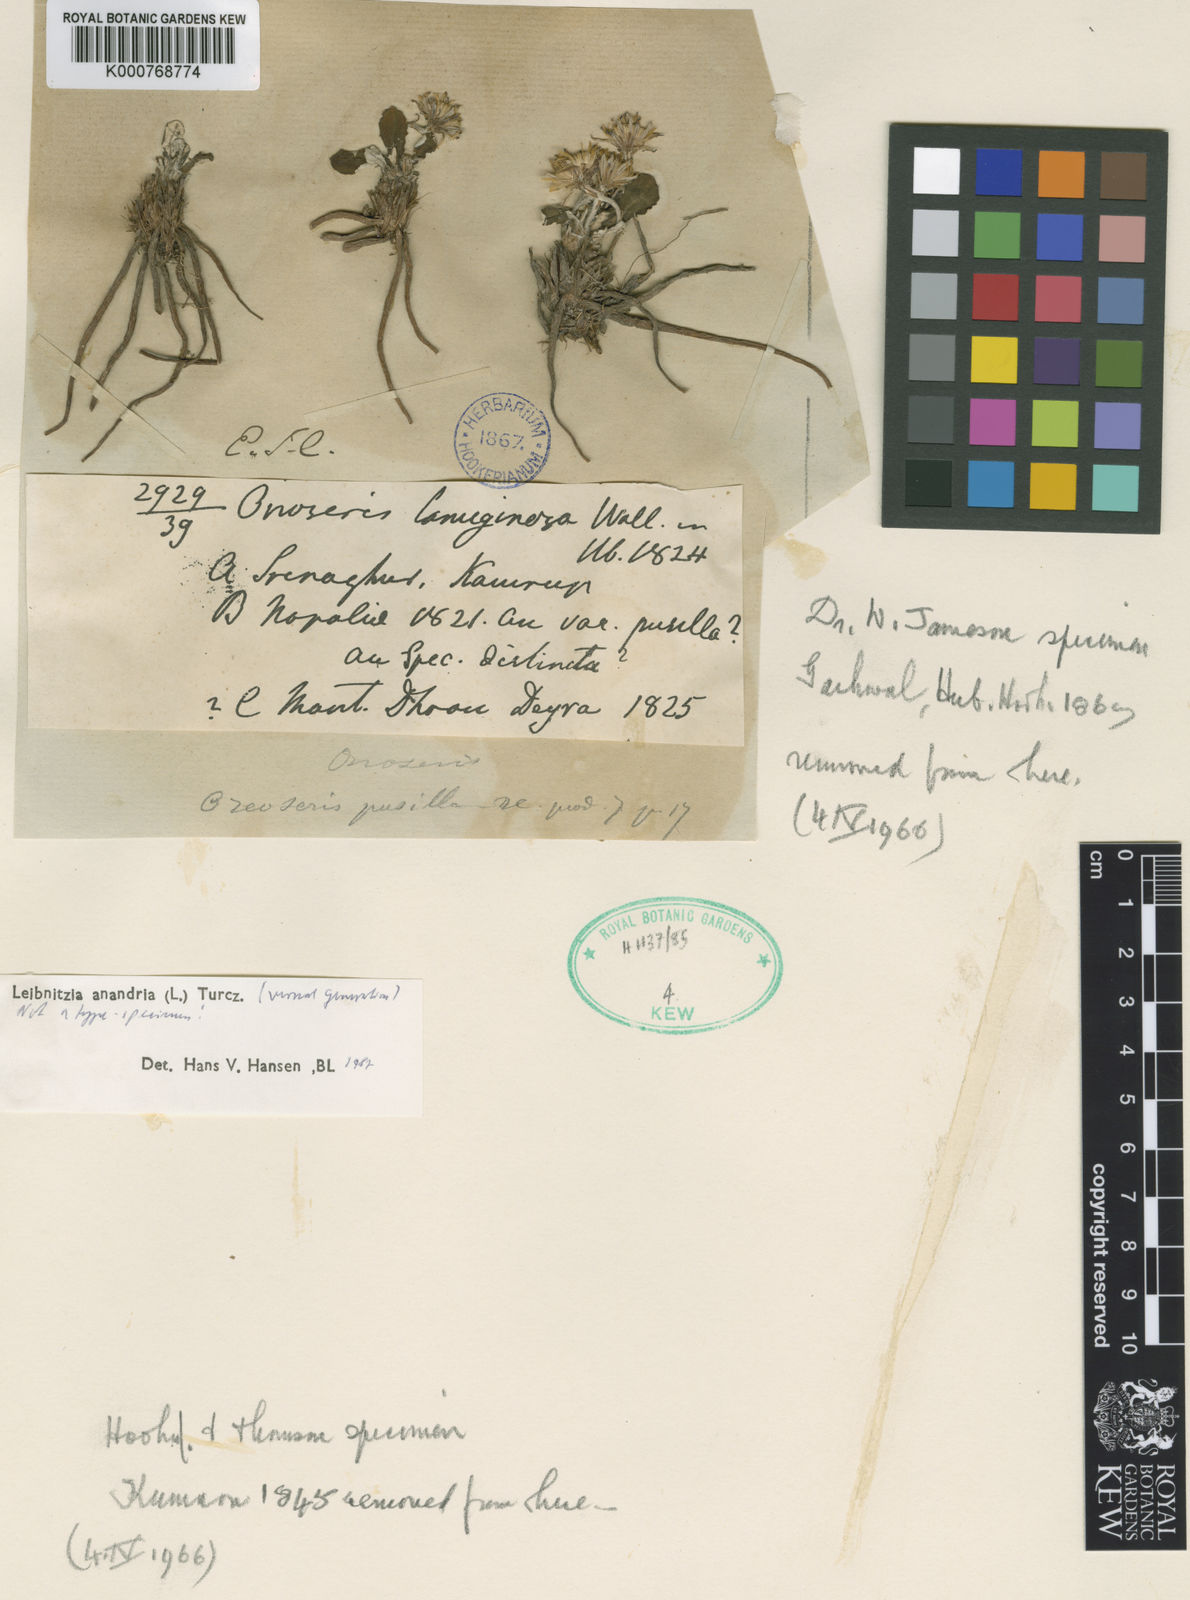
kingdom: Plantae
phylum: Tracheophyta
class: Magnoliopsida
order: Asterales
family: Asteraceae
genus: Leibnitzia
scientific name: Leibnitzia
